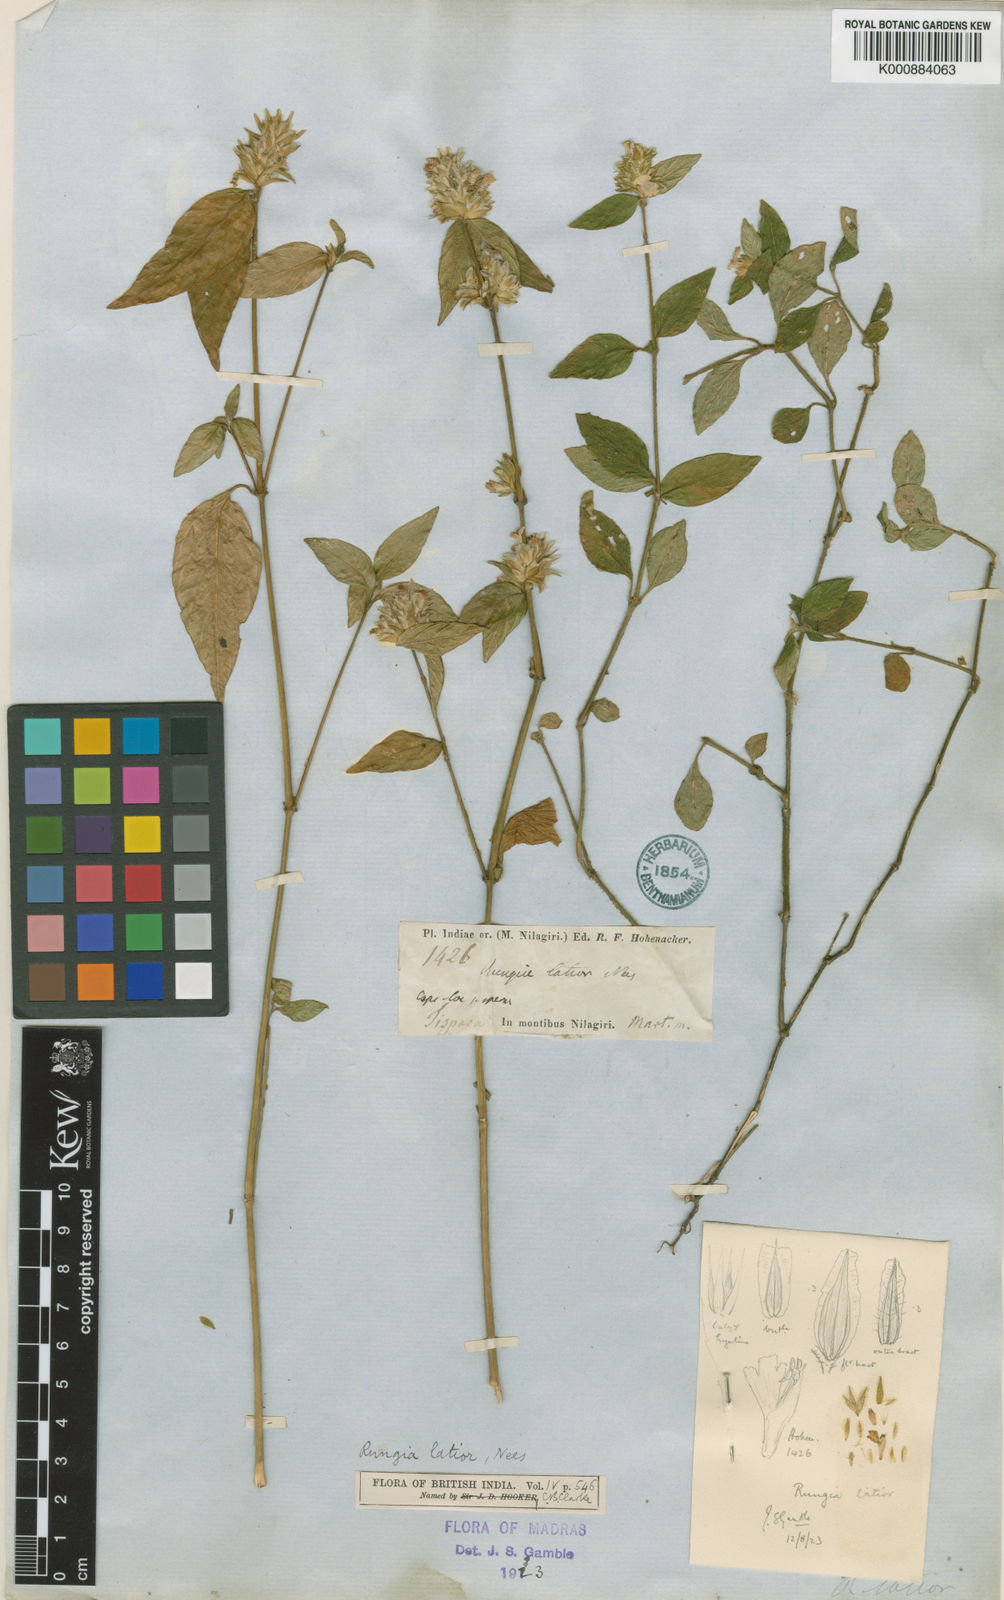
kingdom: Plantae
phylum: Tracheophyta
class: Magnoliopsida
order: Lamiales
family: Acanthaceae
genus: Justicia
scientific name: Justicia
